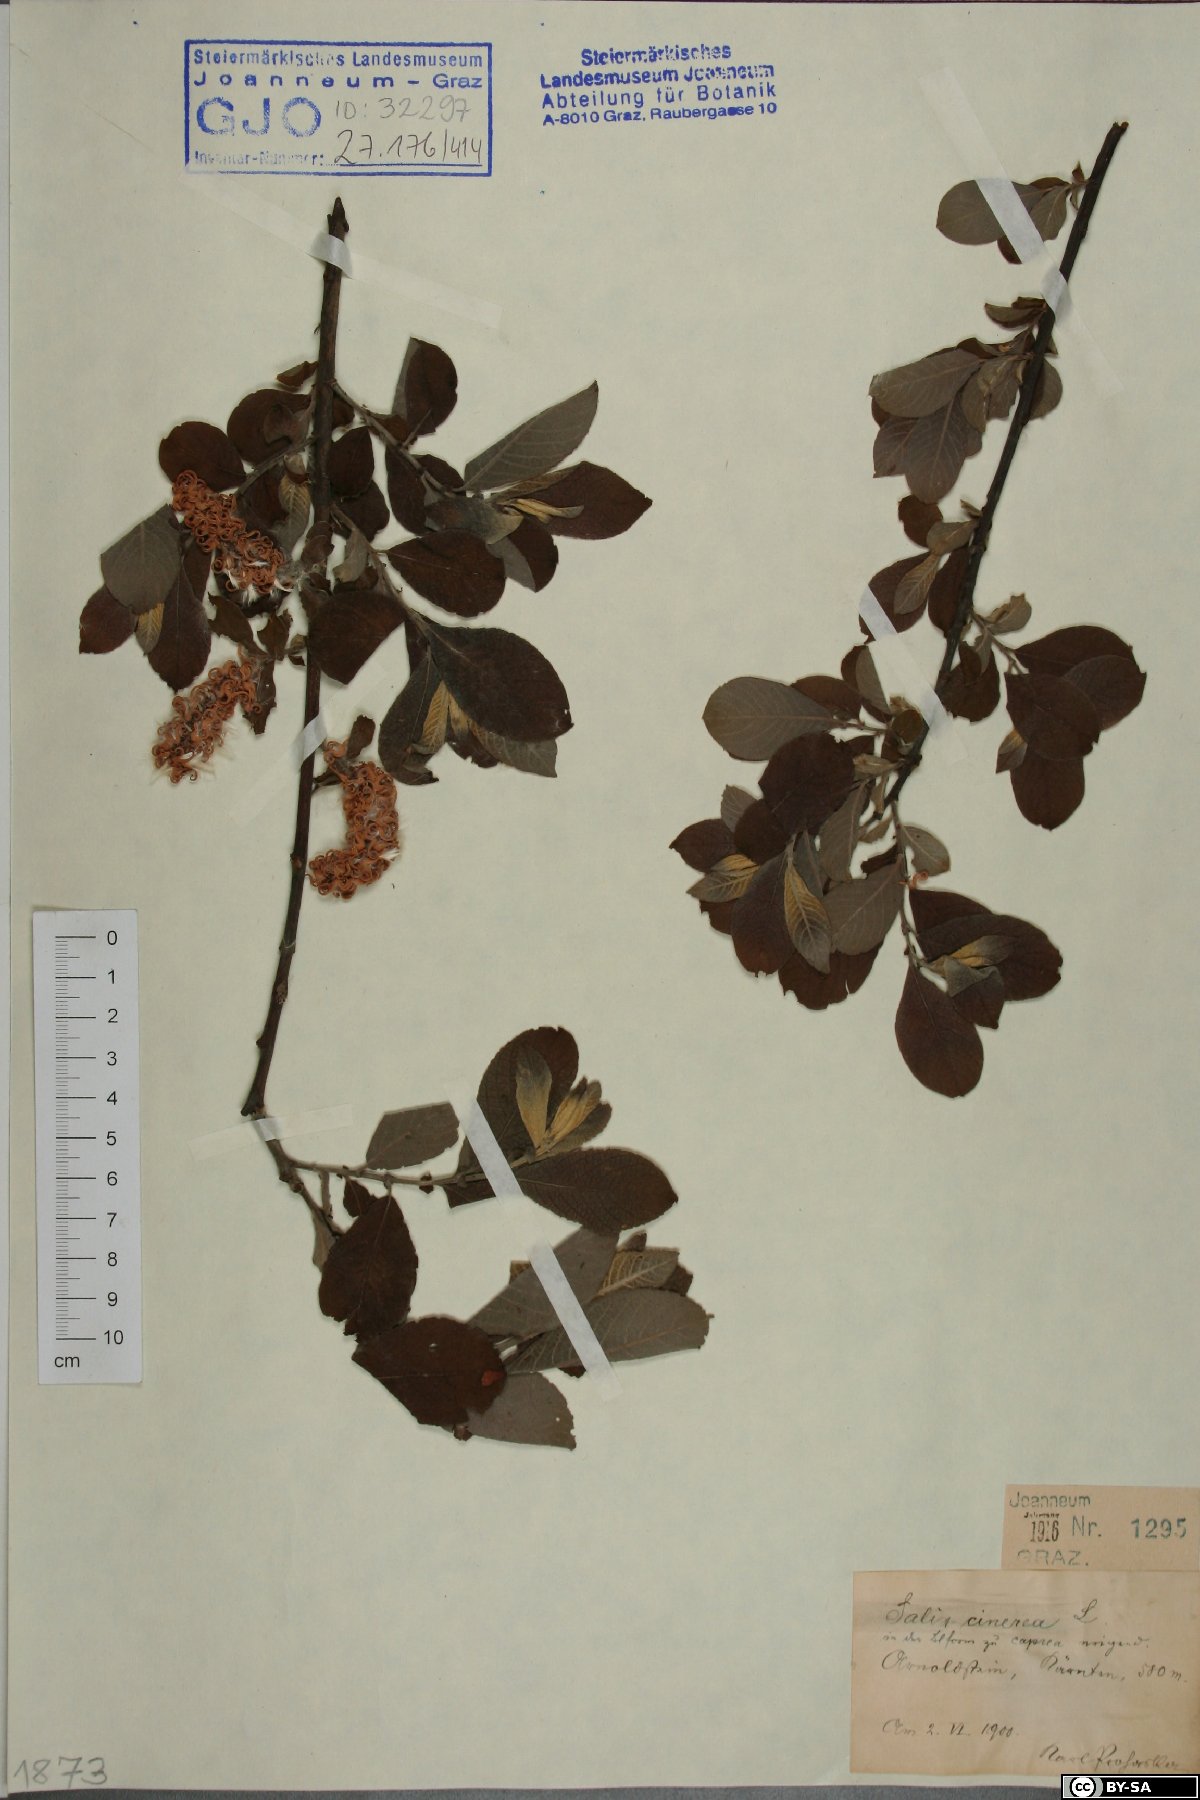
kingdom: Plantae
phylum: Tracheophyta
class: Magnoliopsida
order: Malpighiales
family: Salicaceae
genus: Salix
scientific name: Salix cinerea
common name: Common sallow
